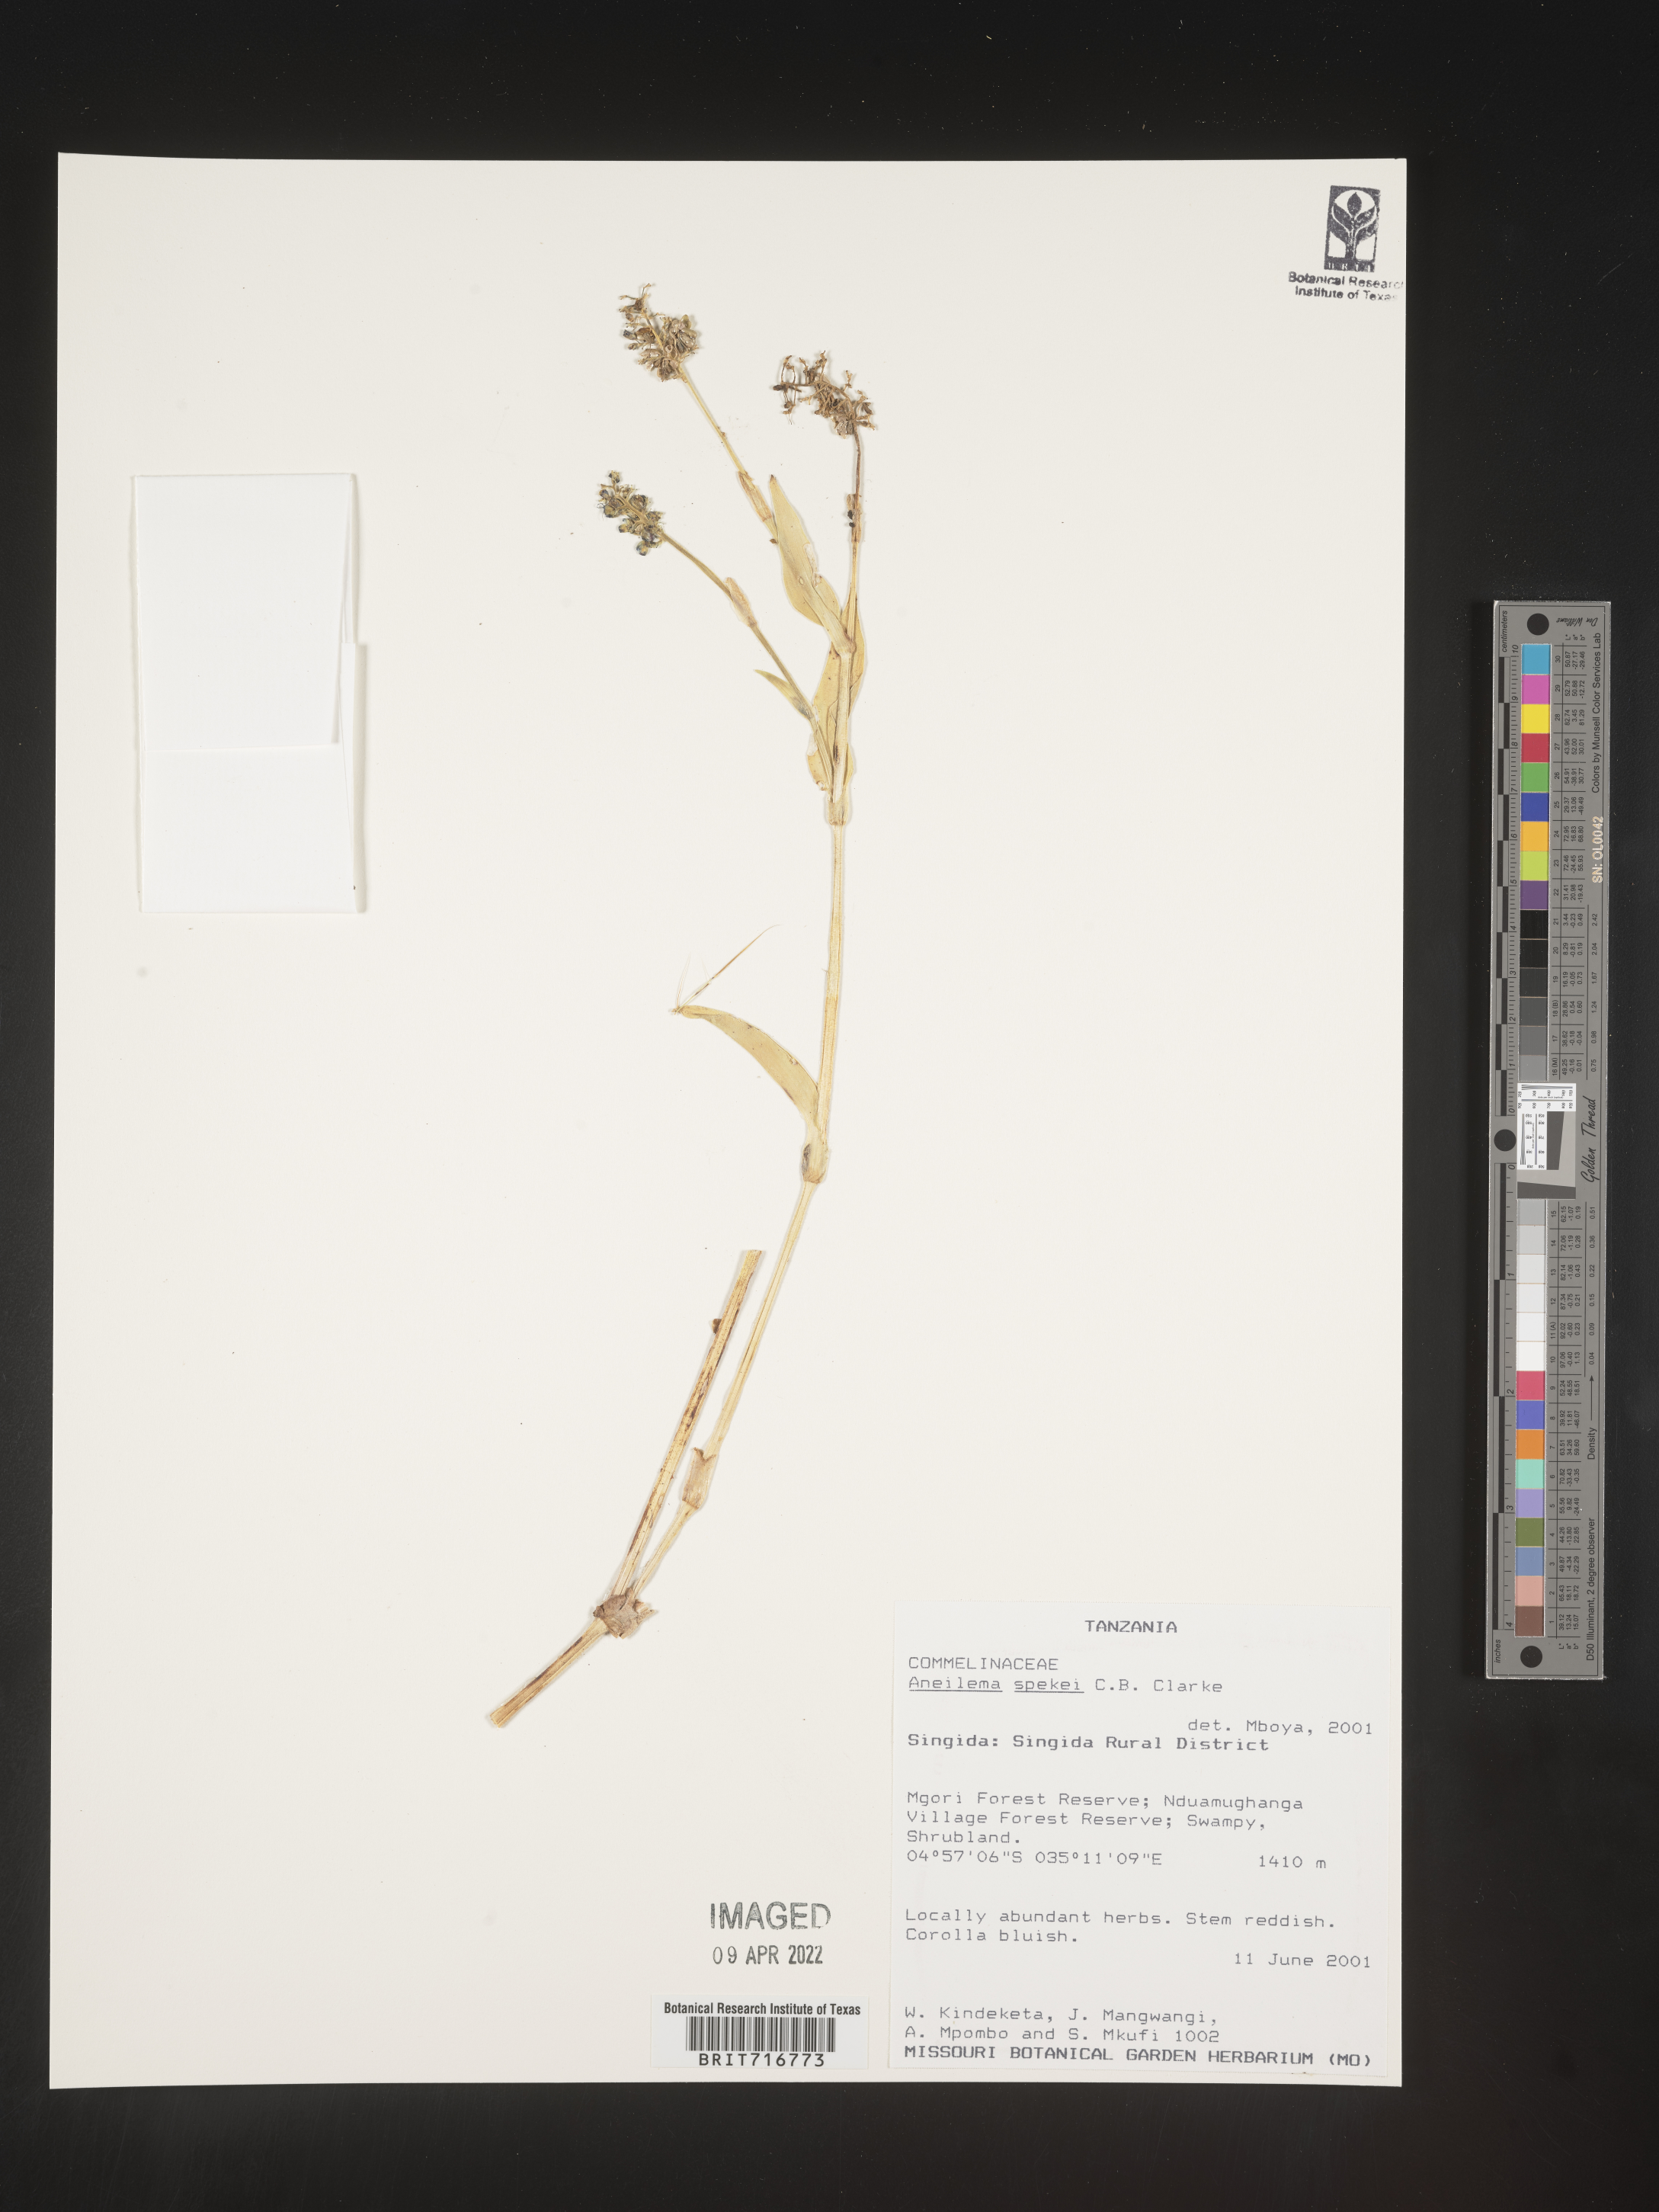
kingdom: Plantae
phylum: Tracheophyta
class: Liliopsida
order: Commelinales
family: Commelinaceae
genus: Aneilema
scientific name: Aneilema
